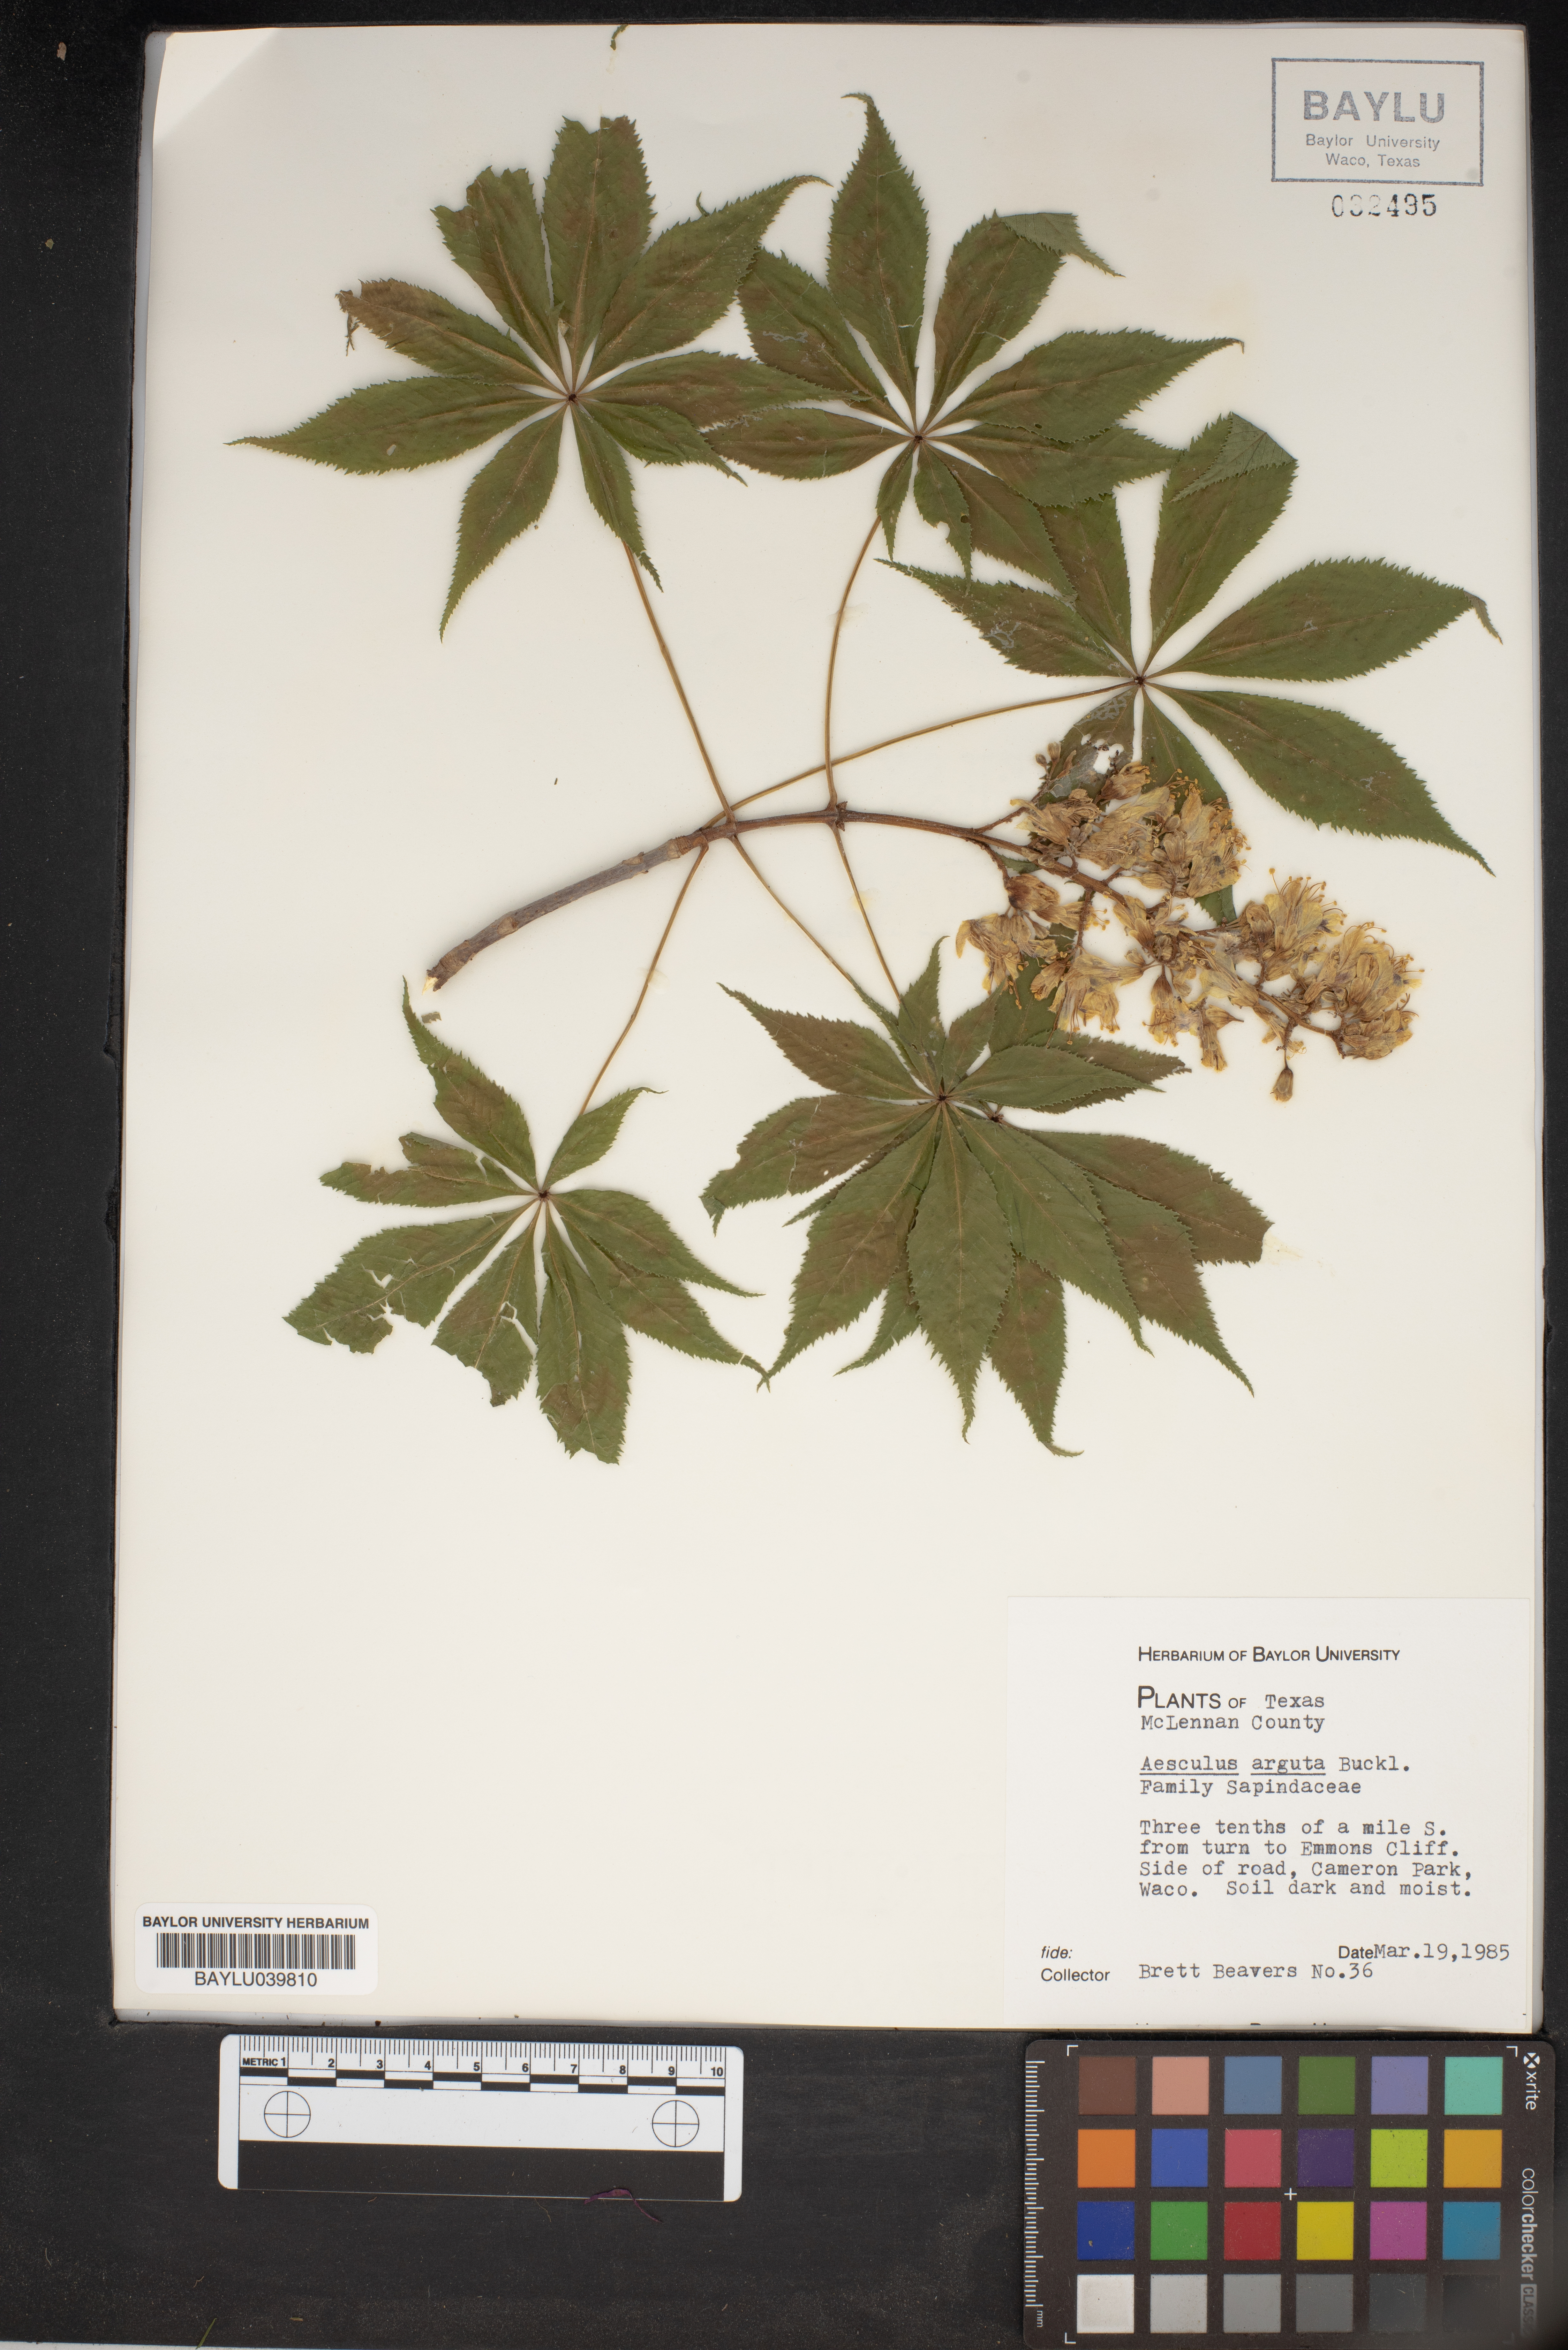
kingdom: Plantae
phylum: Tracheophyta
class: Magnoliopsida
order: Sapindales
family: Sapindaceae
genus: Aesculus
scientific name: Aesculus glabra
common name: Ohio buckeye
